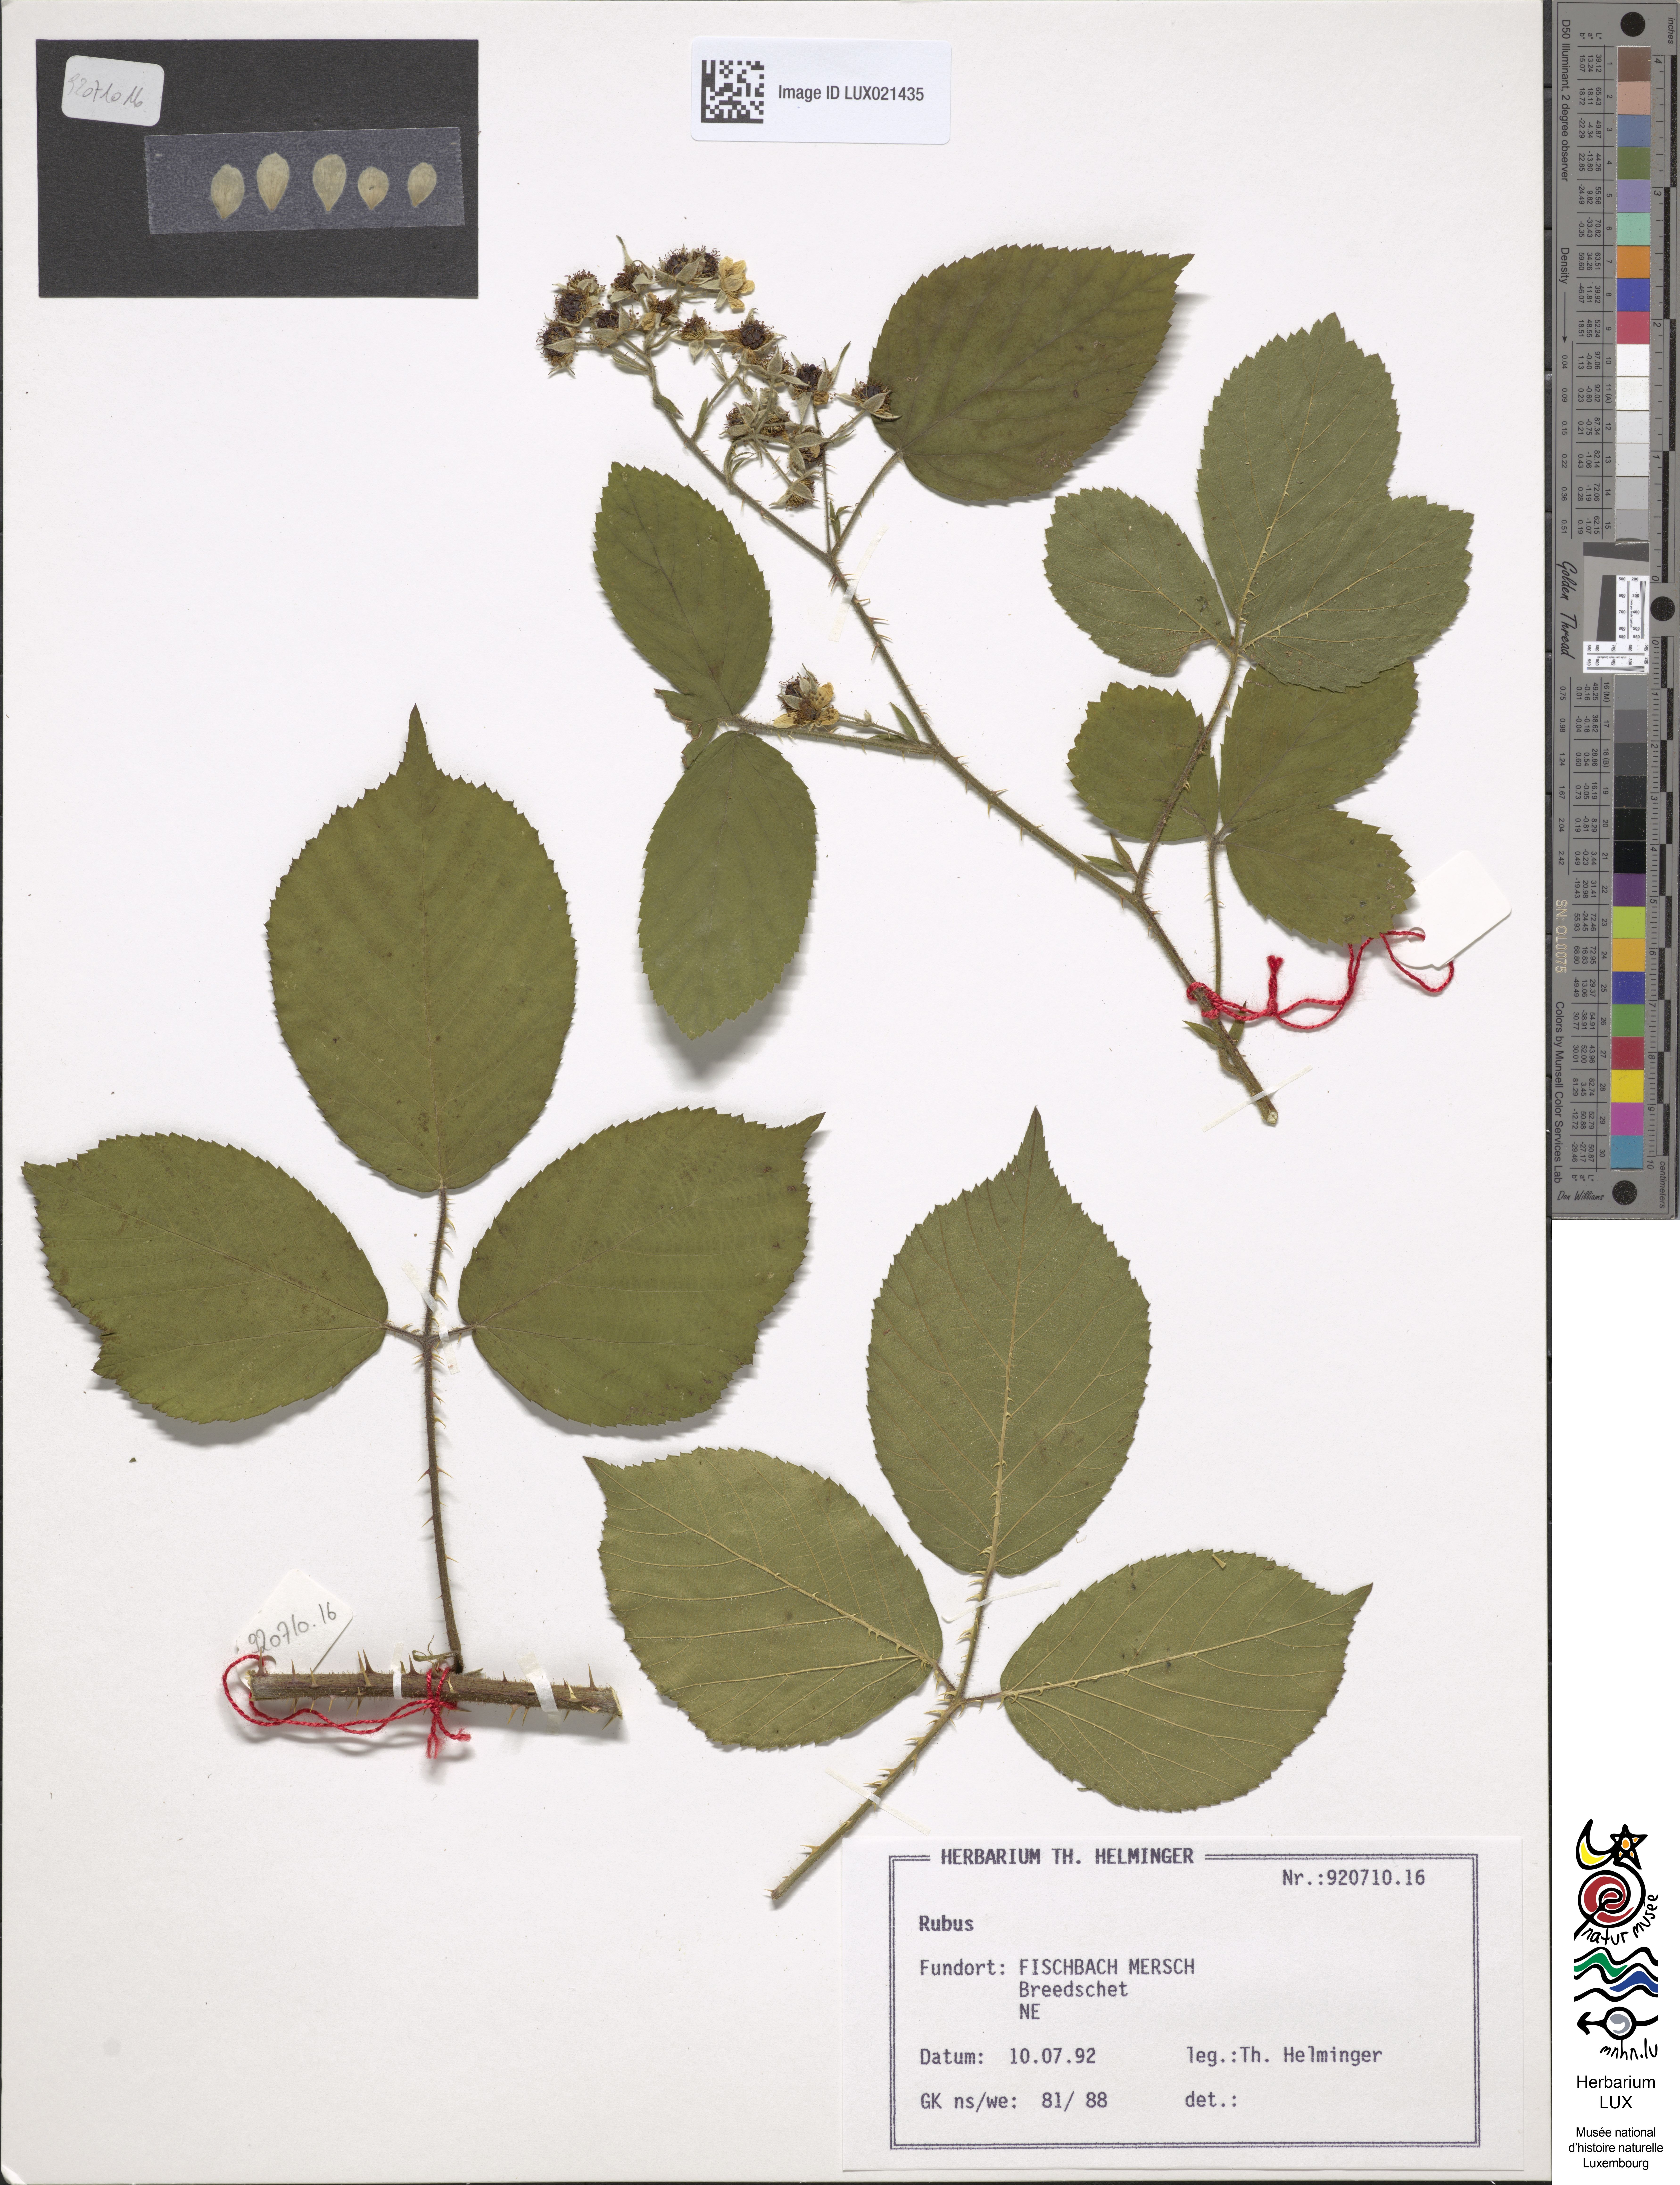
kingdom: Plantae
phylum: Tracheophyta
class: Magnoliopsida
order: Rosales
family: Rosaceae
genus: Rubus
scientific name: Rubus
